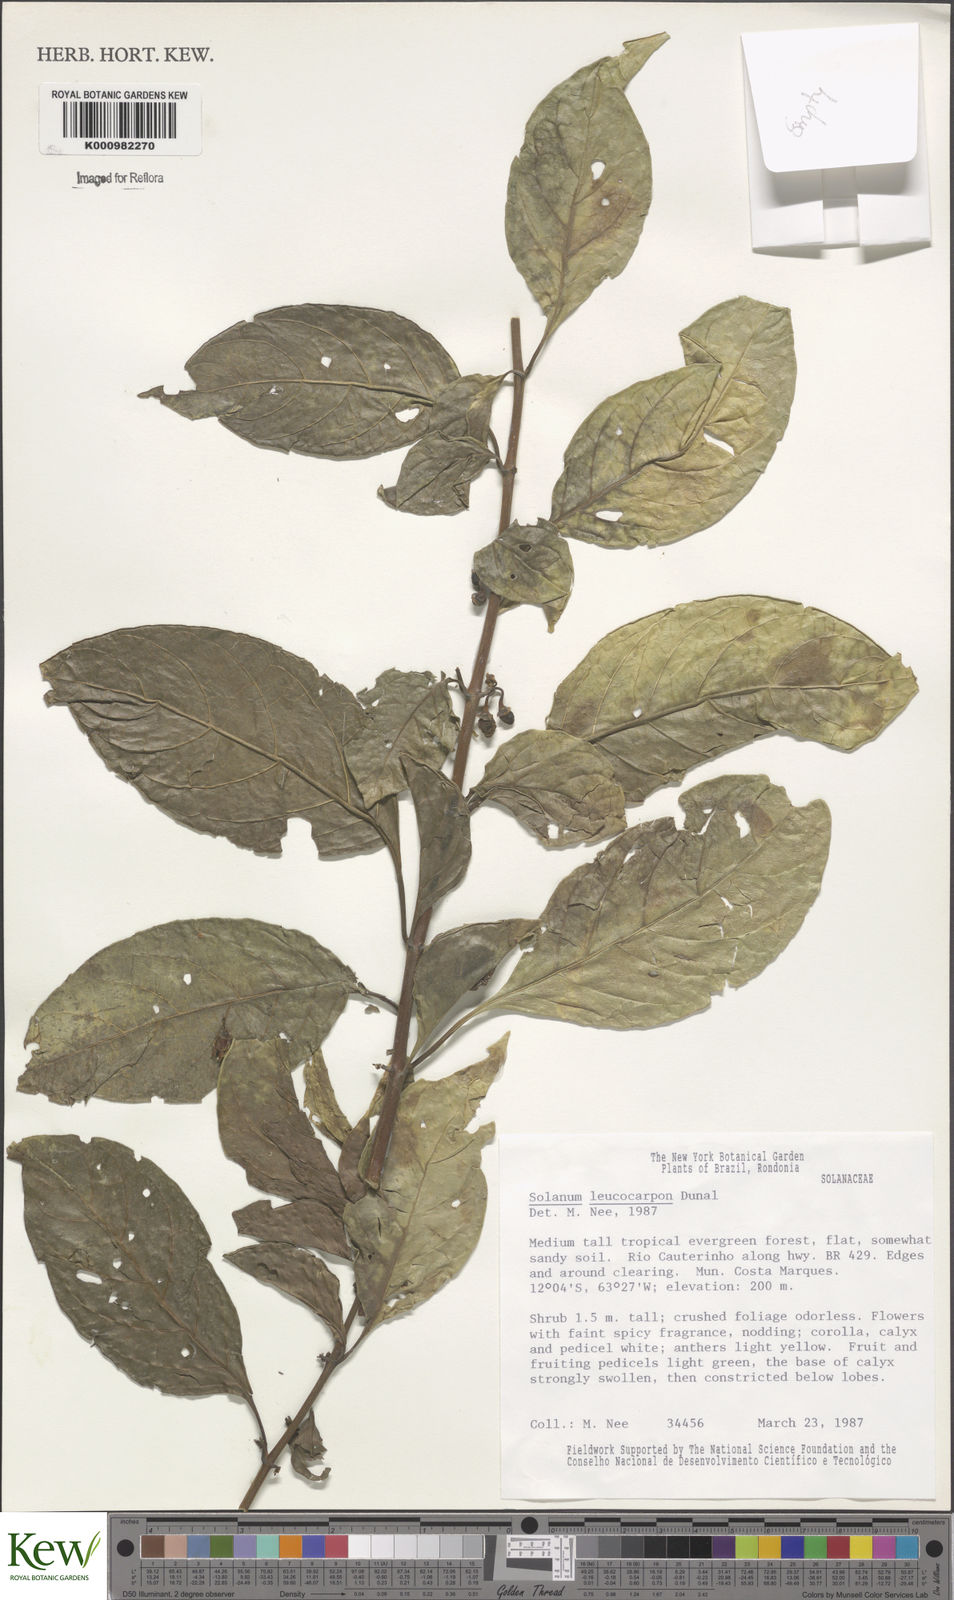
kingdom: Plantae
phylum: Tracheophyta
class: Magnoliopsida
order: Solanales
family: Solanaceae
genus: Solanum
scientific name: Solanum leucocarpon
